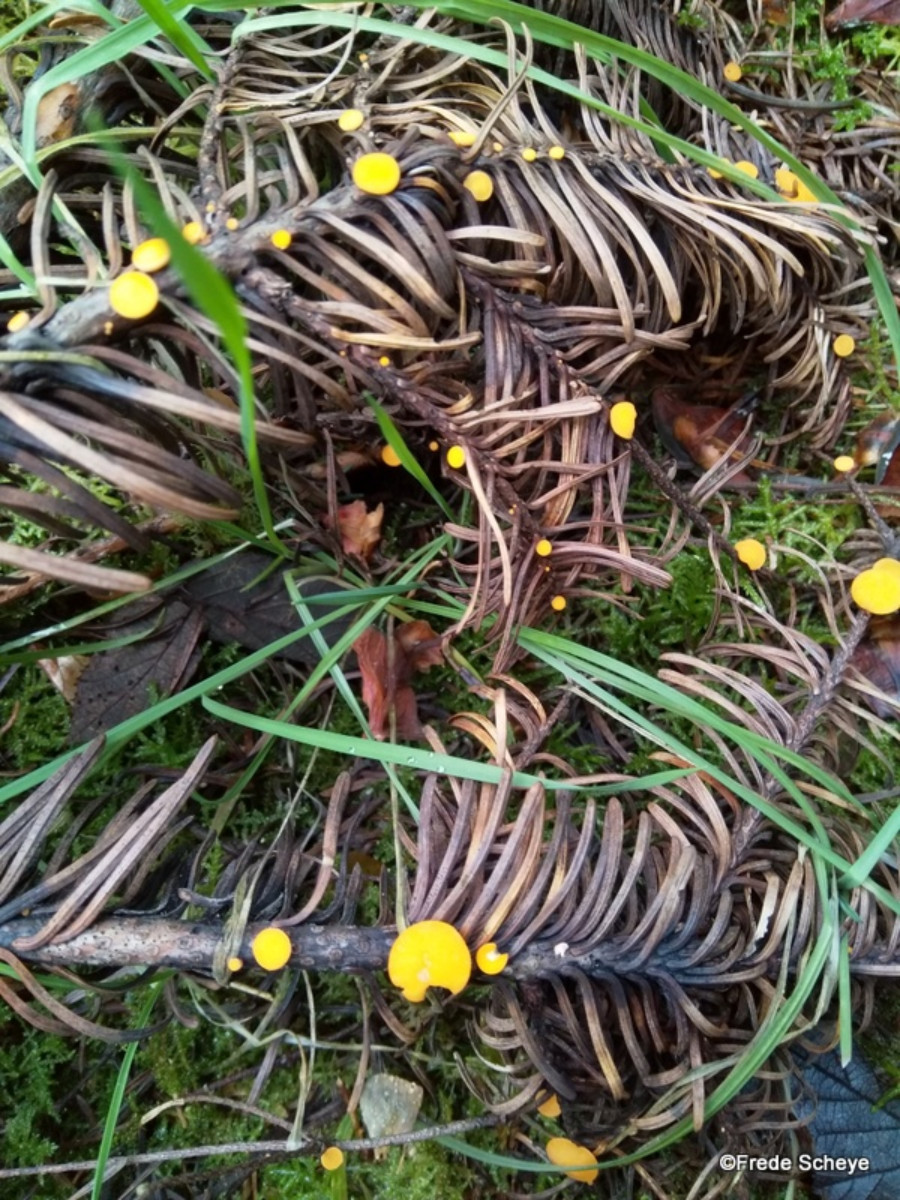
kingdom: Fungi
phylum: Ascomycota
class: Pezizomycetes
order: Pezizales
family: Sarcoscyphaceae
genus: Pithya
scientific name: Pithya vulgaris
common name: stor dukatbæger
